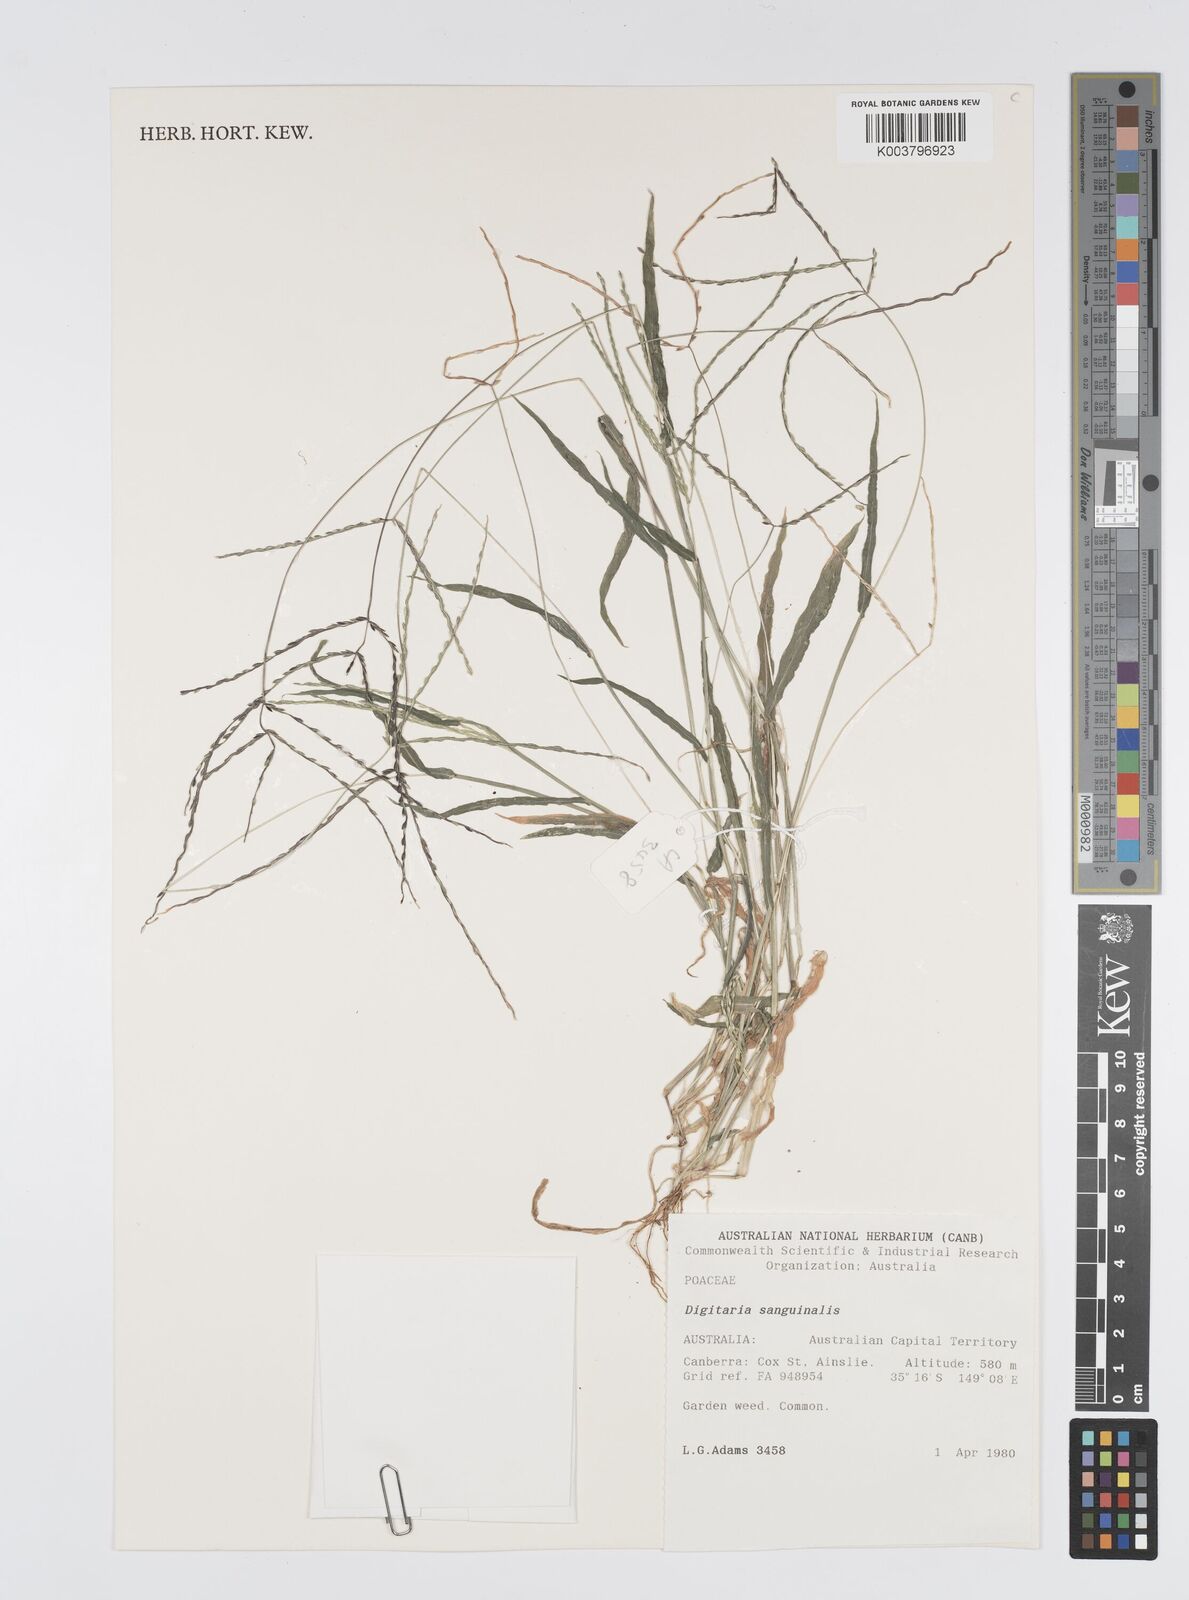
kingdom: Plantae
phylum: Tracheophyta
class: Liliopsida
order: Poales
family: Poaceae
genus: Digitaria
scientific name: Digitaria sanguinalis
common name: Hairy crabgrass
